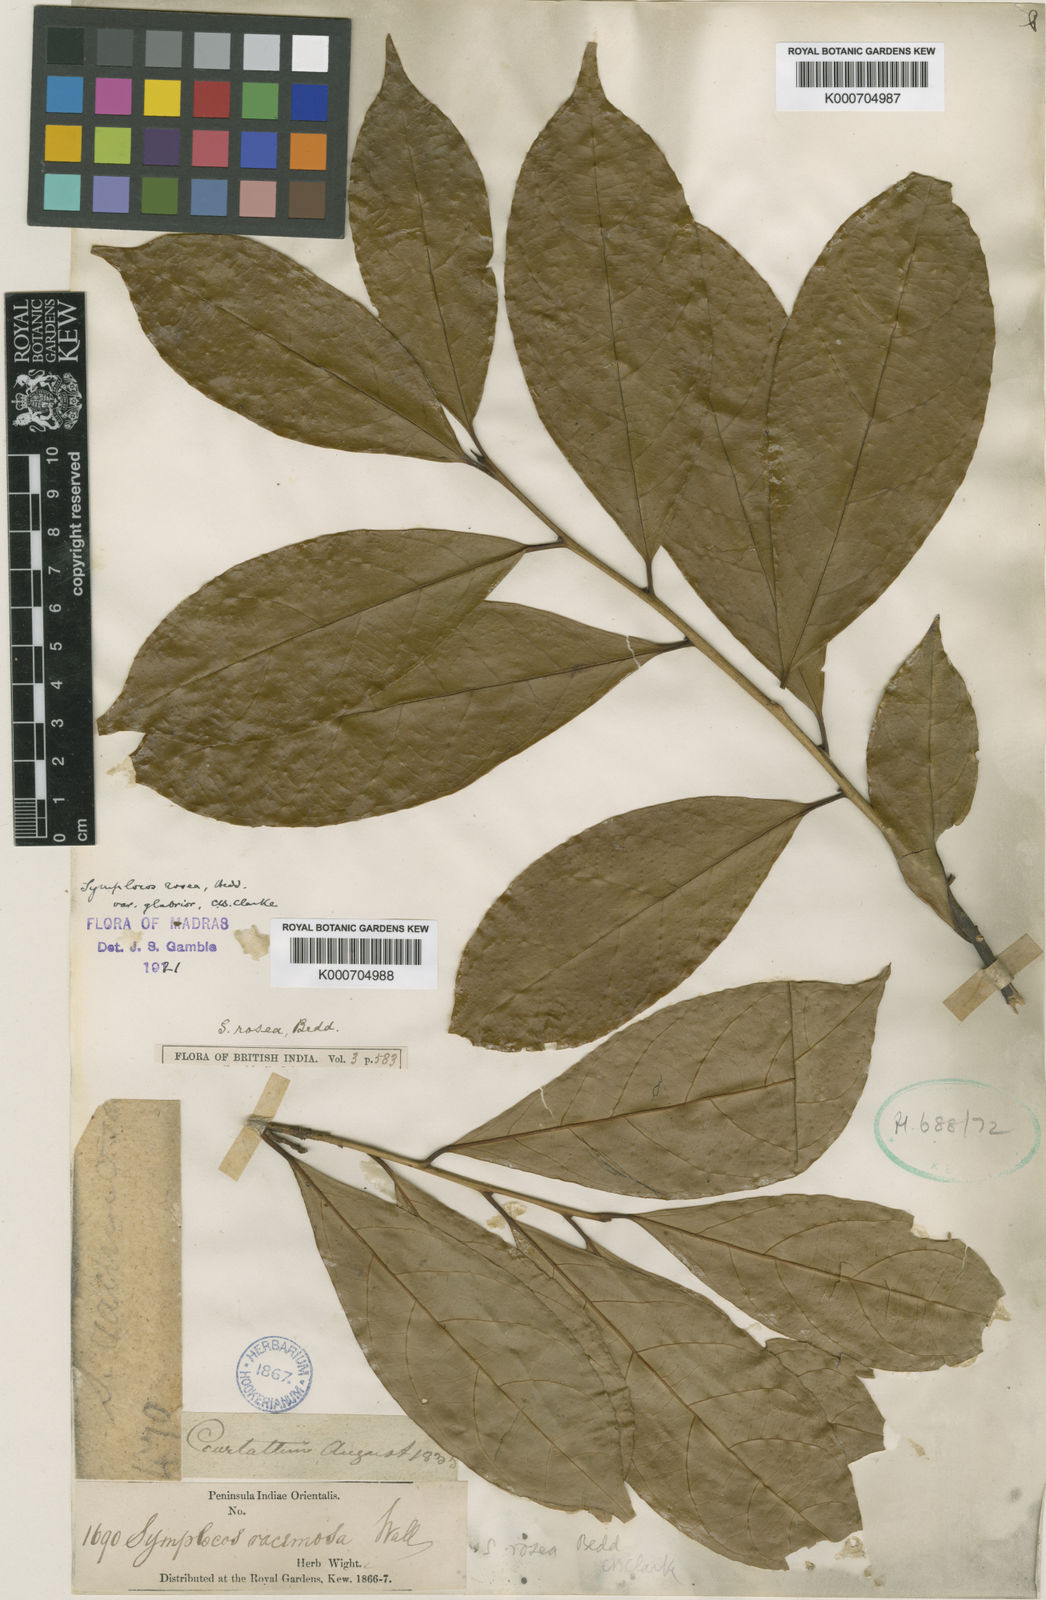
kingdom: Plantae
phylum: Tracheophyta
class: Magnoliopsida
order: Ericales
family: Symplocaceae
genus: Symplocos
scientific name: Symplocos macrophylla
